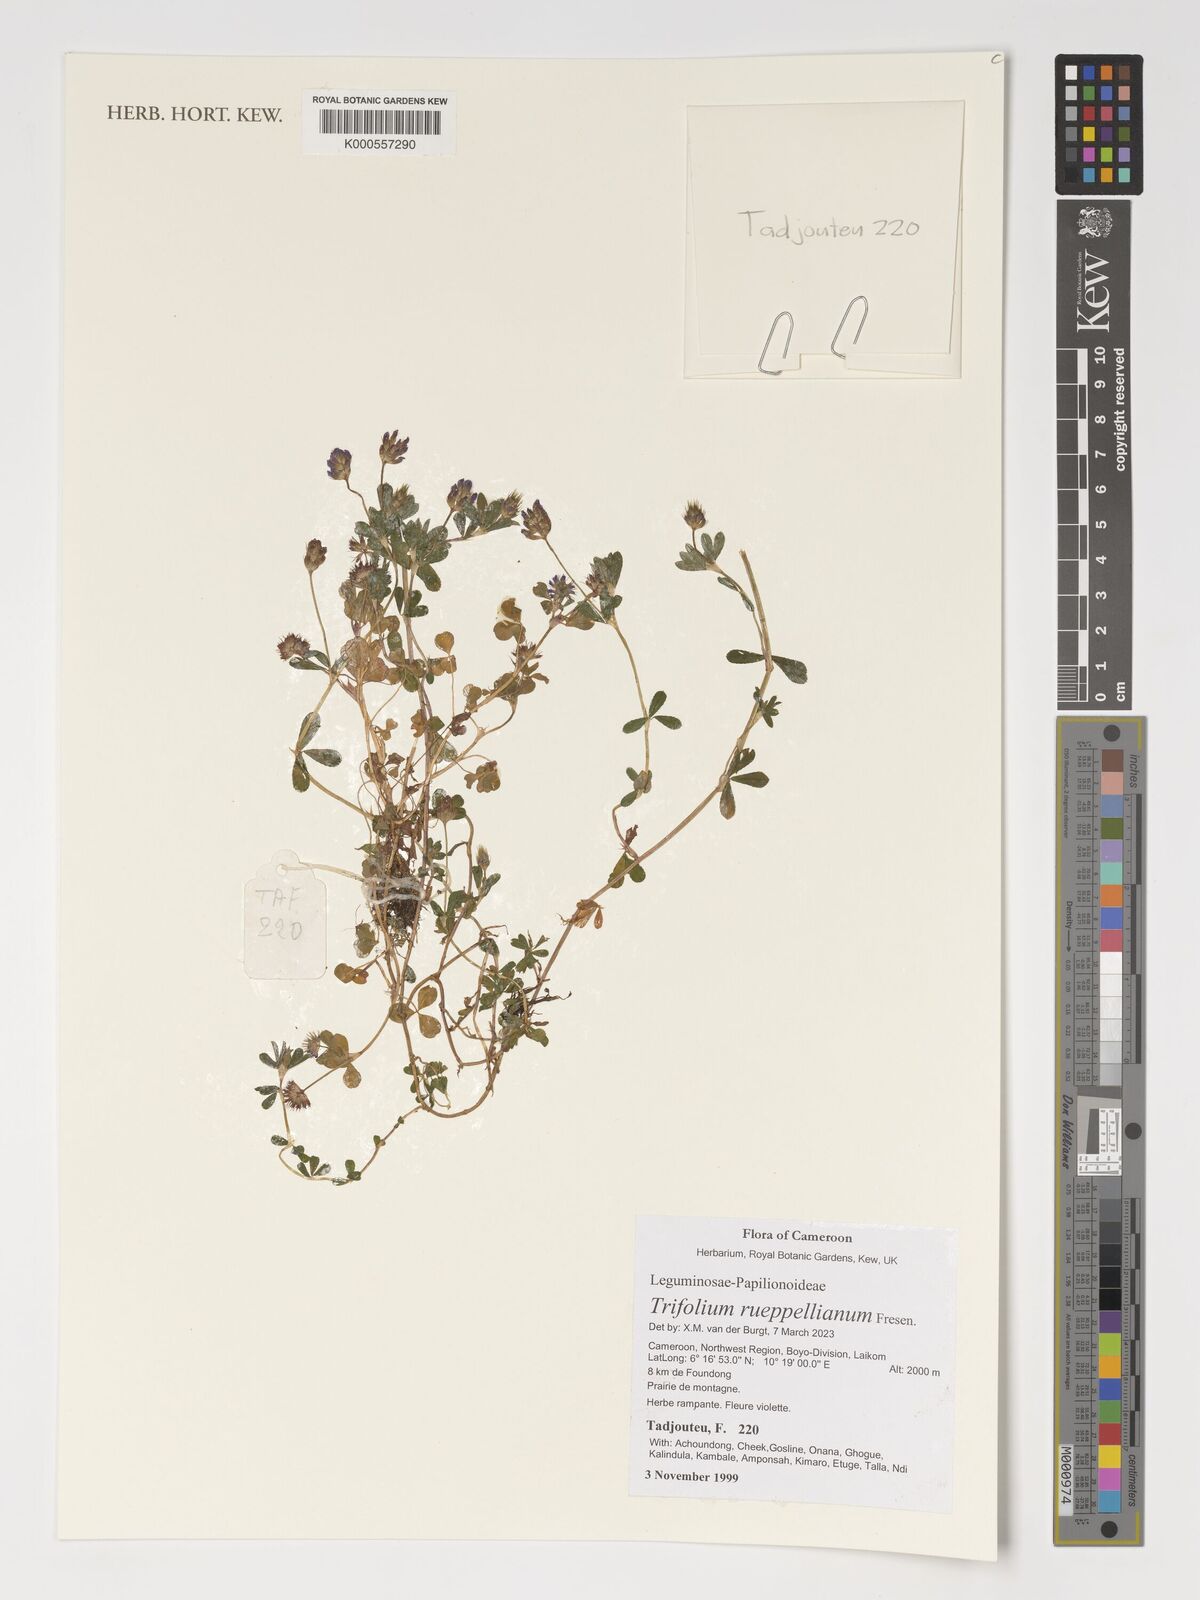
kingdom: Plantae
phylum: Tracheophyta
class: Magnoliopsida
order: Fabales
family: Fabaceae
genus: Trifolium
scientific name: Trifolium rueppellianum
